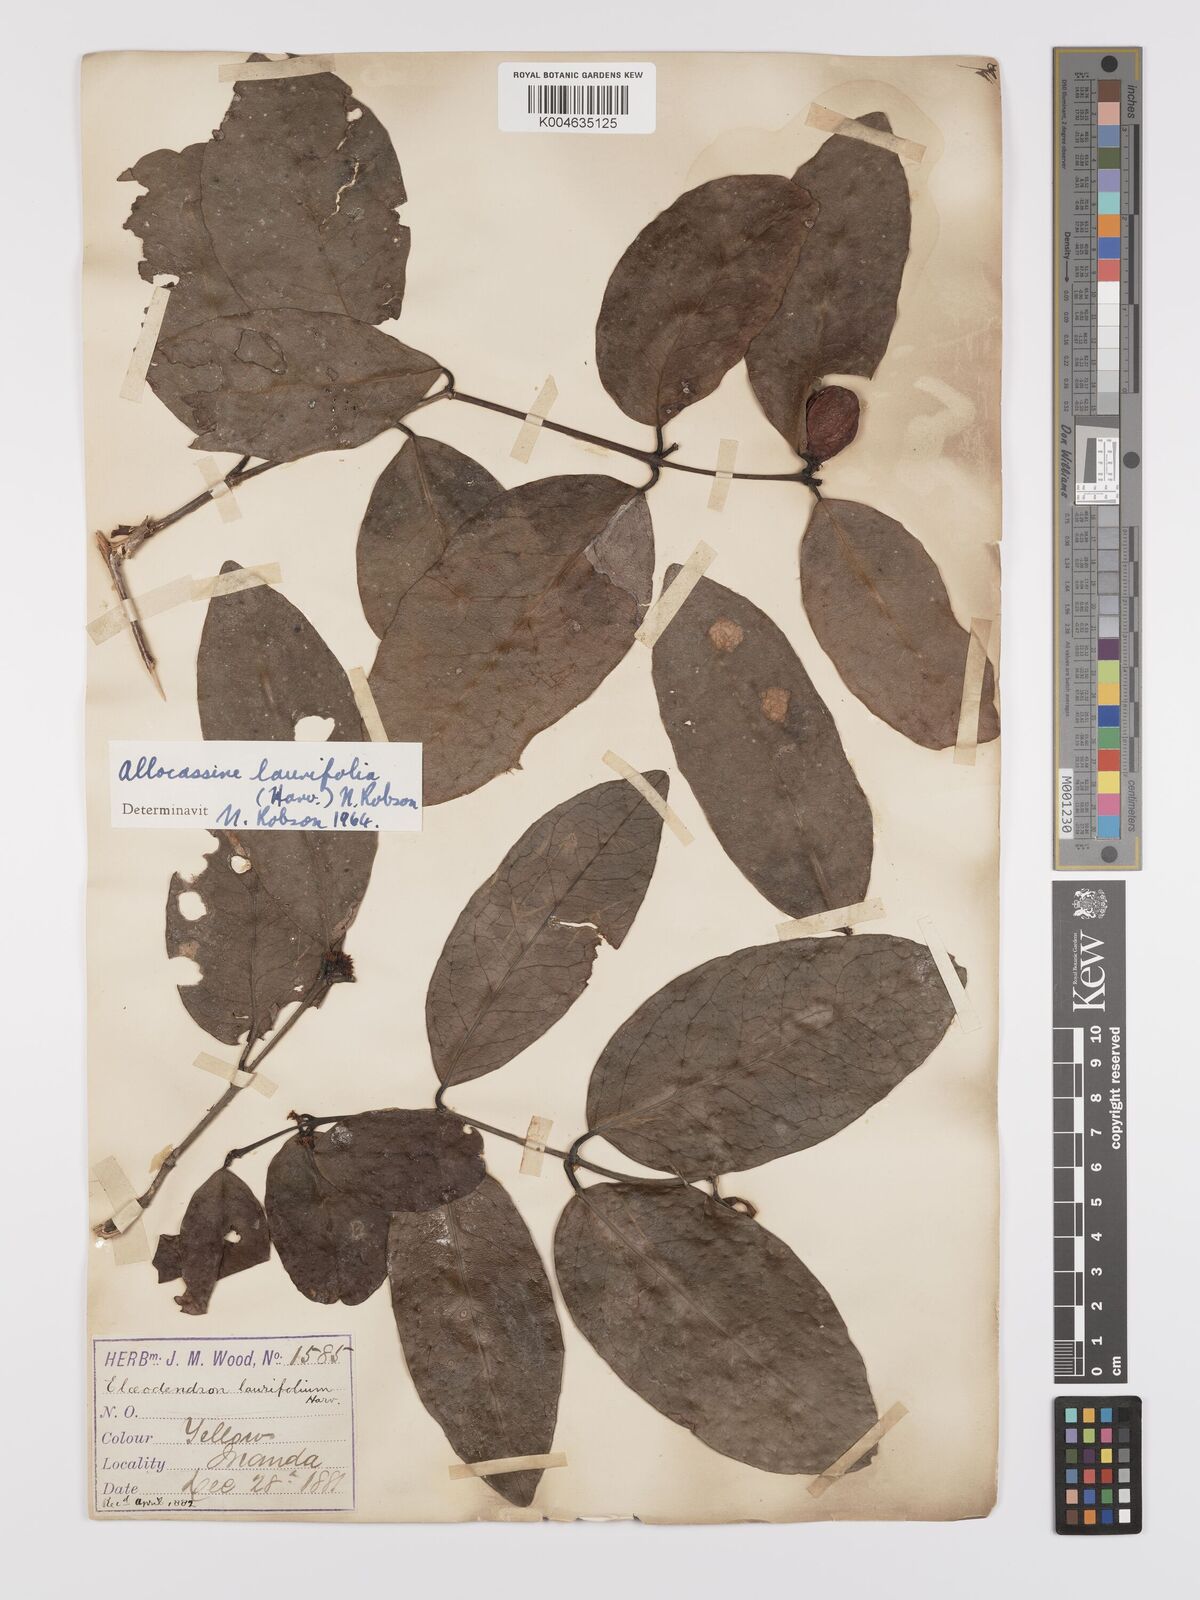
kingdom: Plantae
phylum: Tracheophyta
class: Magnoliopsida
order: Celastrales
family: Celastraceae
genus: Allocassine
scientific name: Allocassine
